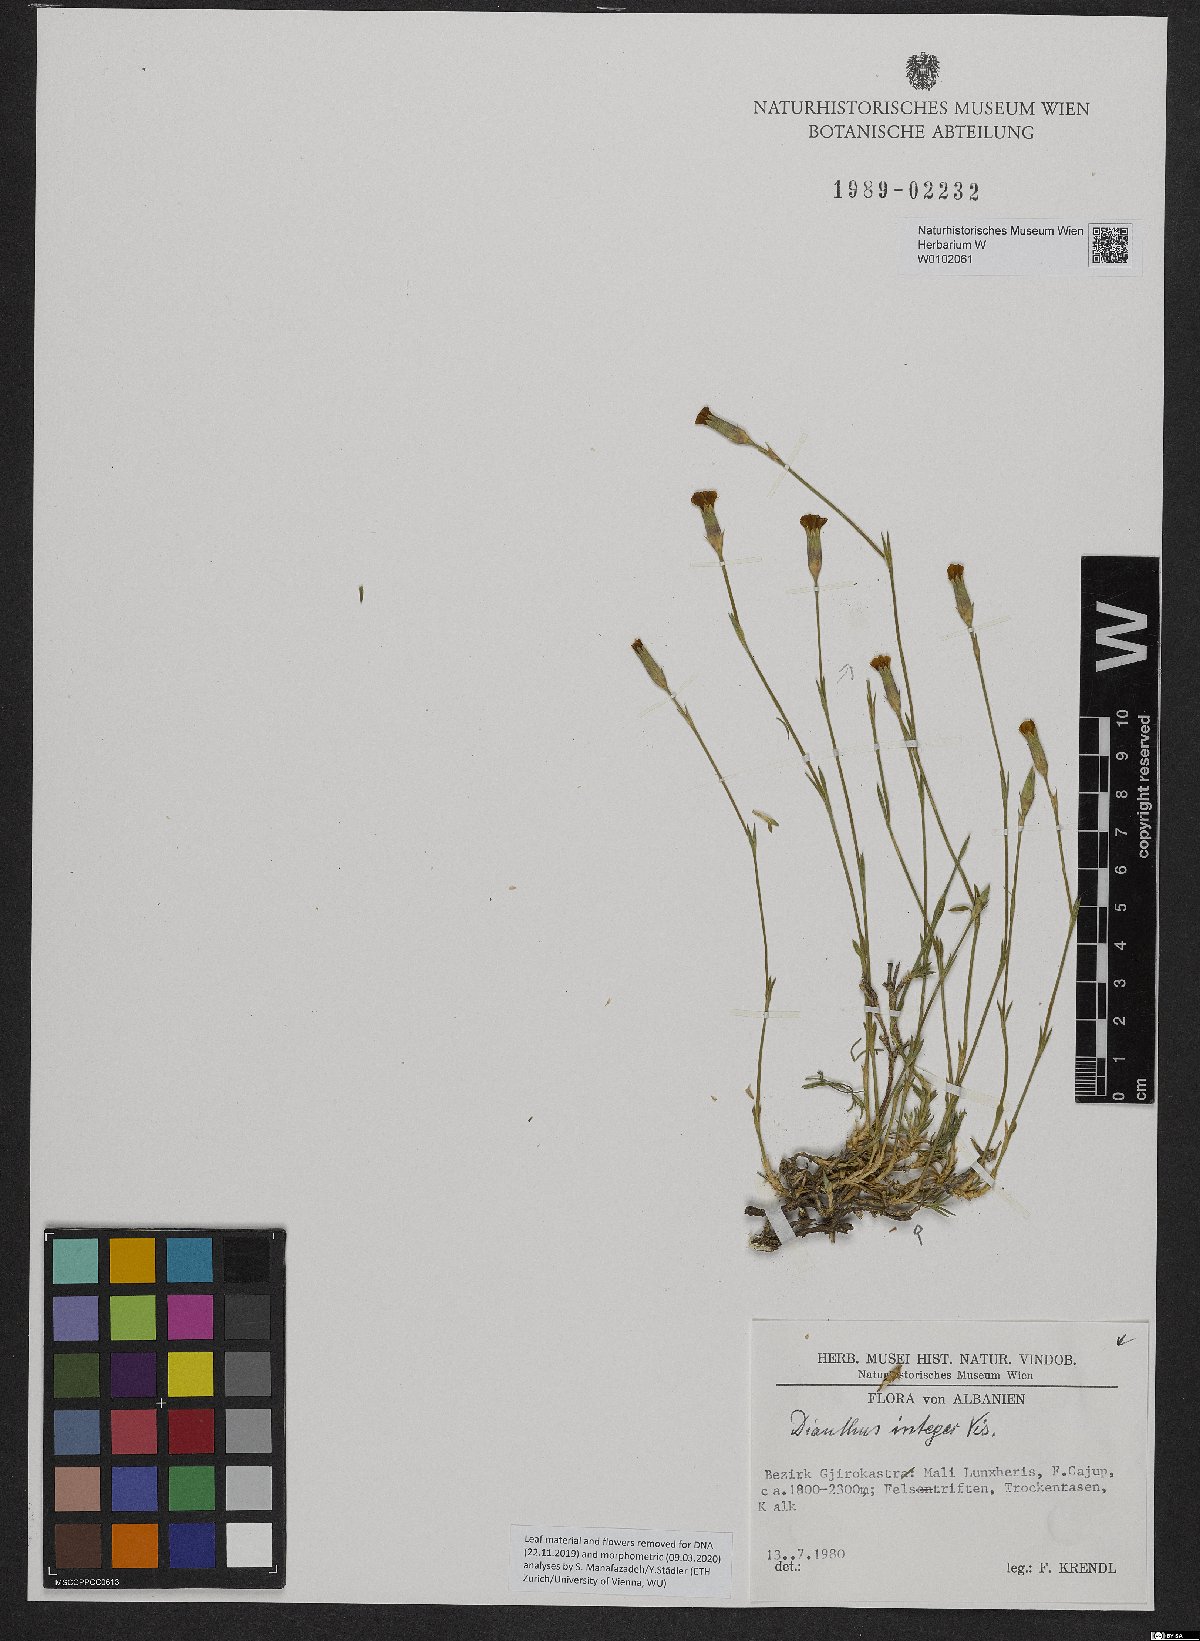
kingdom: Plantae
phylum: Tracheophyta
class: Magnoliopsida
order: Caryophyllales
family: Caryophyllaceae
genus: Dianthus
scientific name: Dianthus integer
